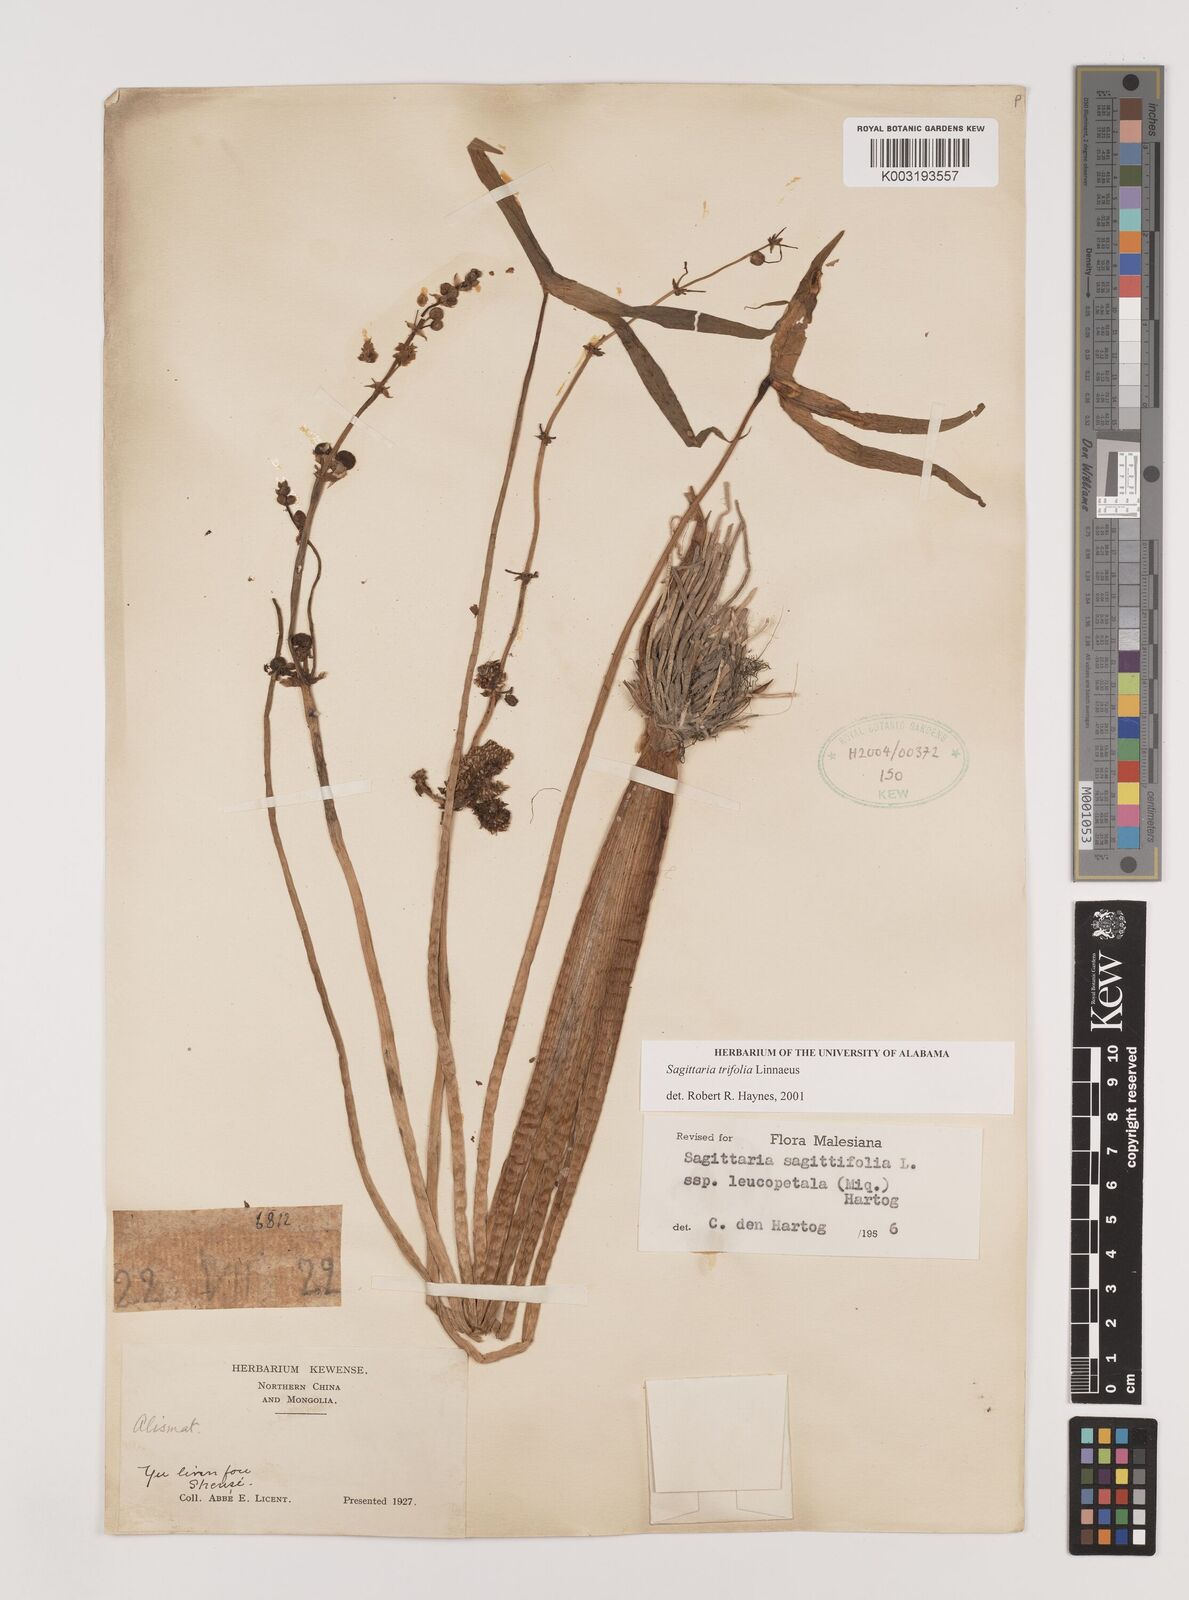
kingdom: Plantae
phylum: Tracheophyta
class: Liliopsida
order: Alismatales
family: Alismataceae
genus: Sagittaria
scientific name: Sagittaria trifolia
